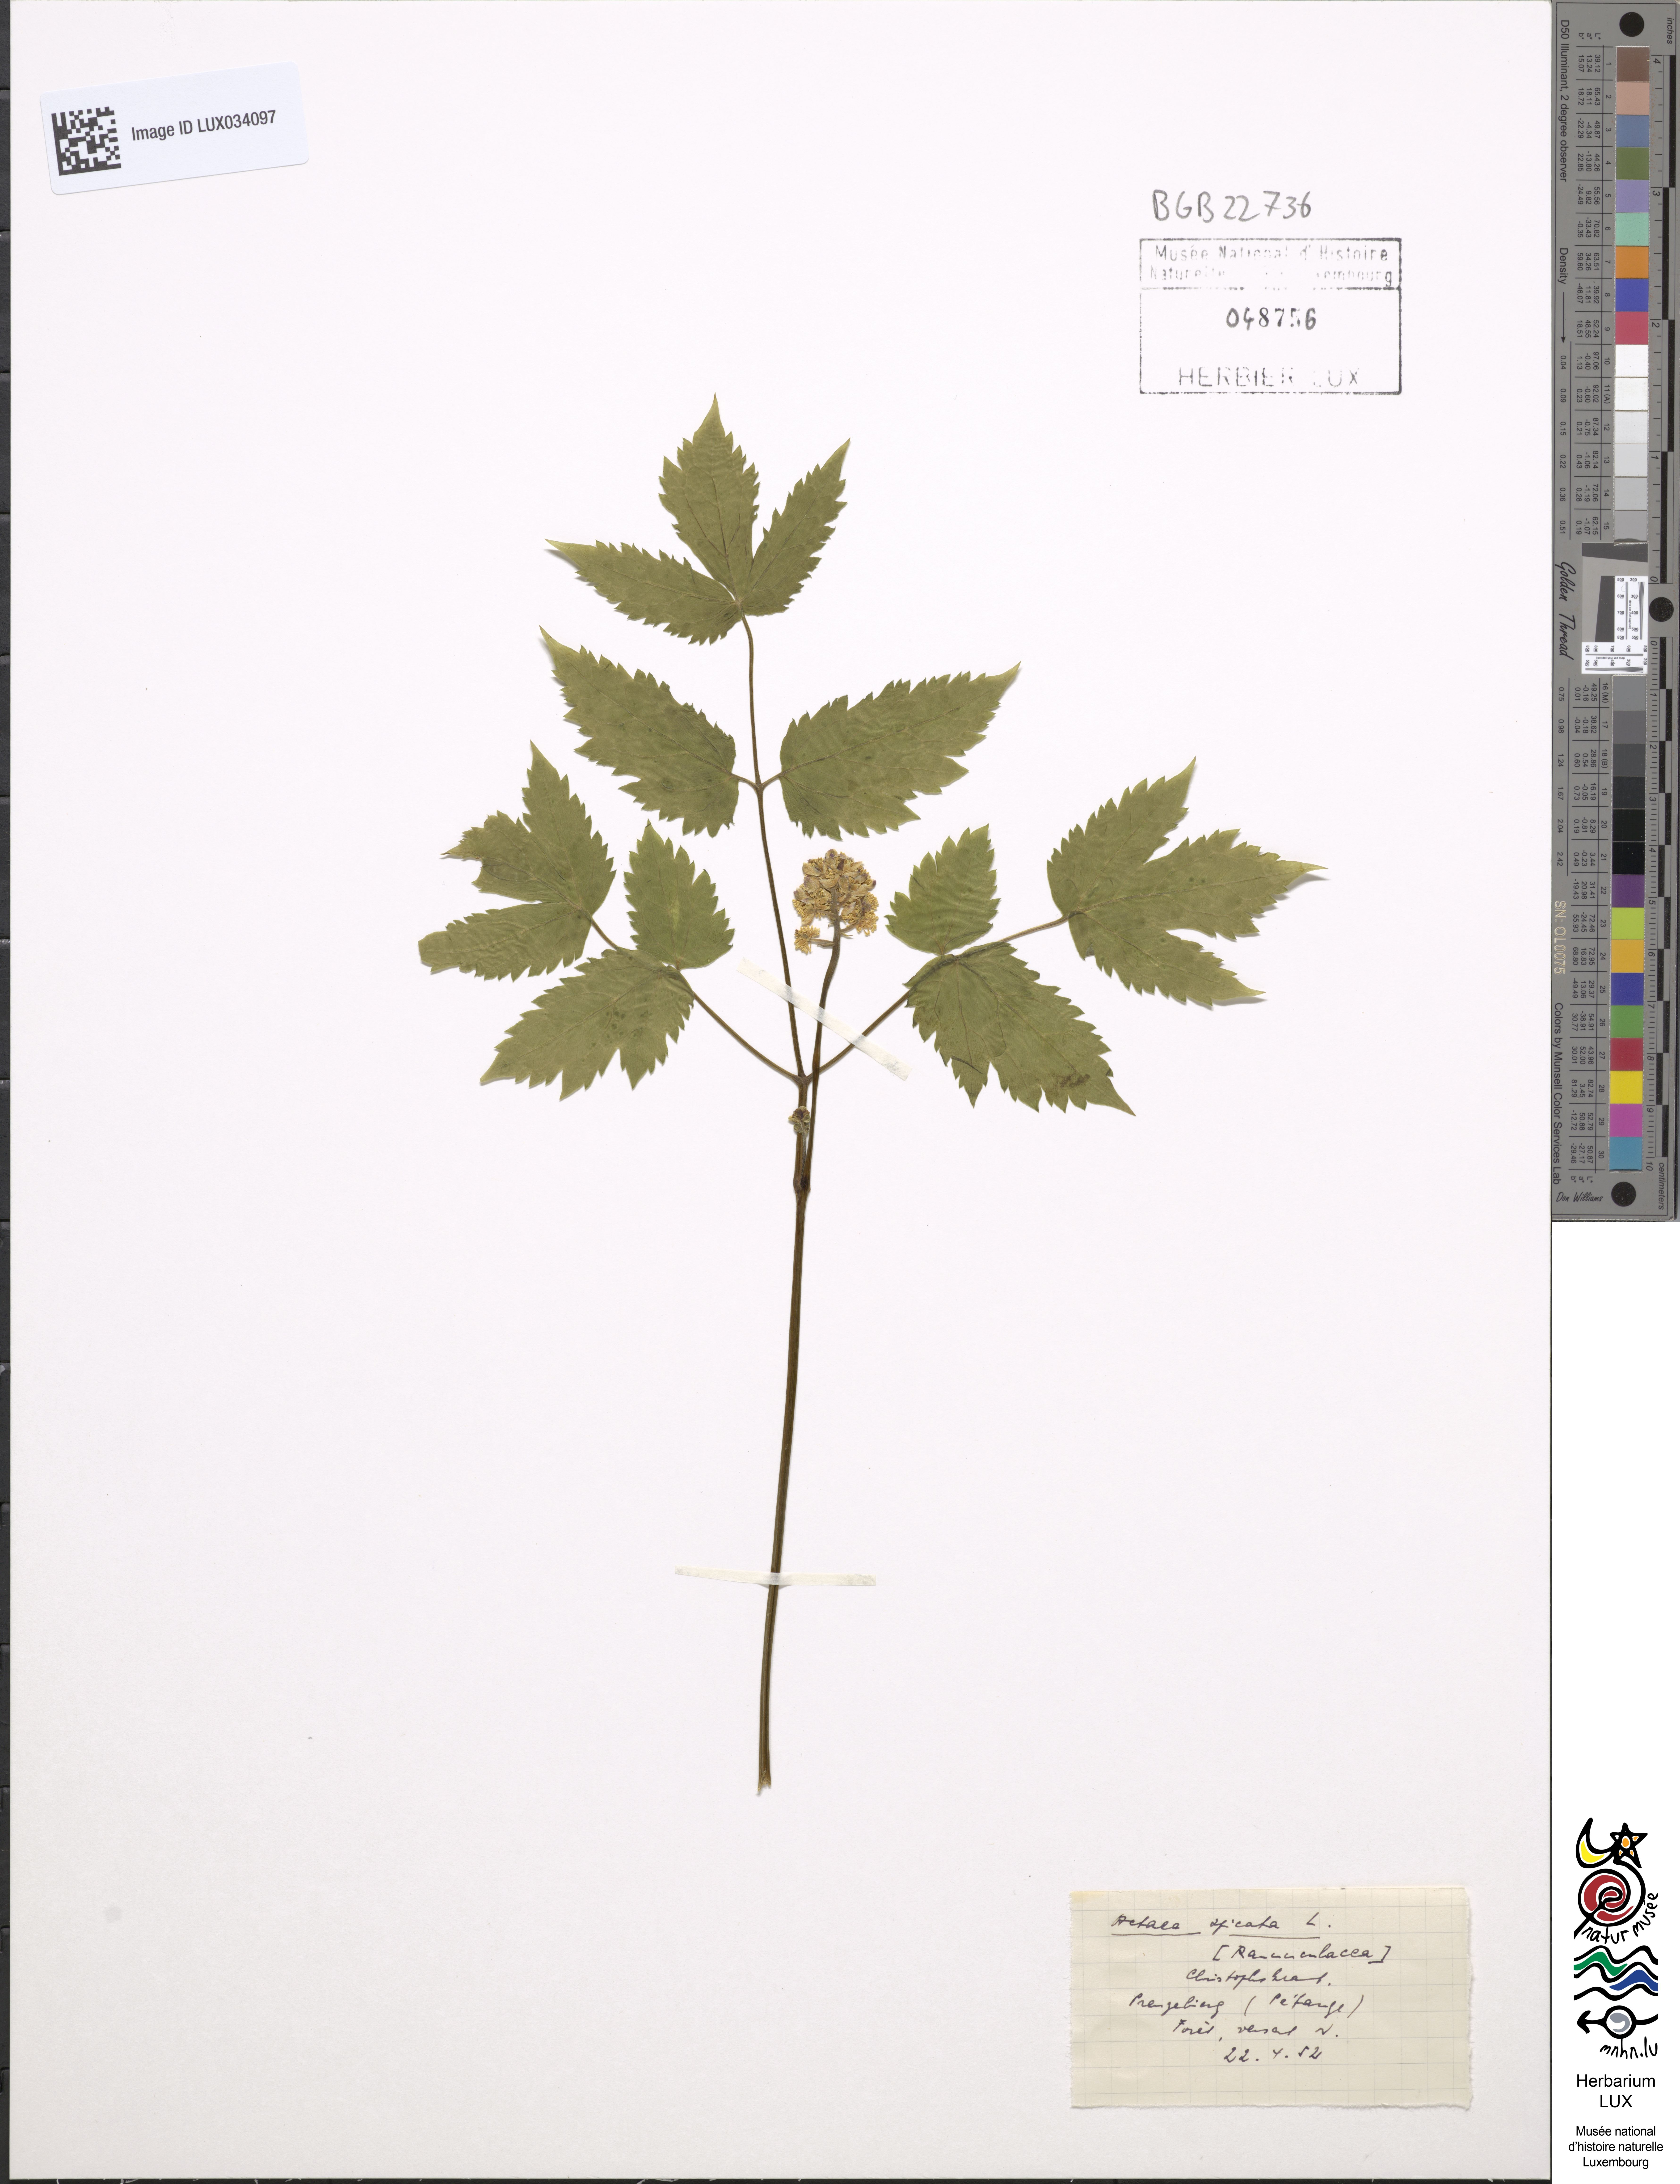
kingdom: Plantae
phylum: Tracheophyta
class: Magnoliopsida
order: Ranunculales
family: Ranunculaceae
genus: Actaea
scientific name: Actaea spicata
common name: Baneberry
